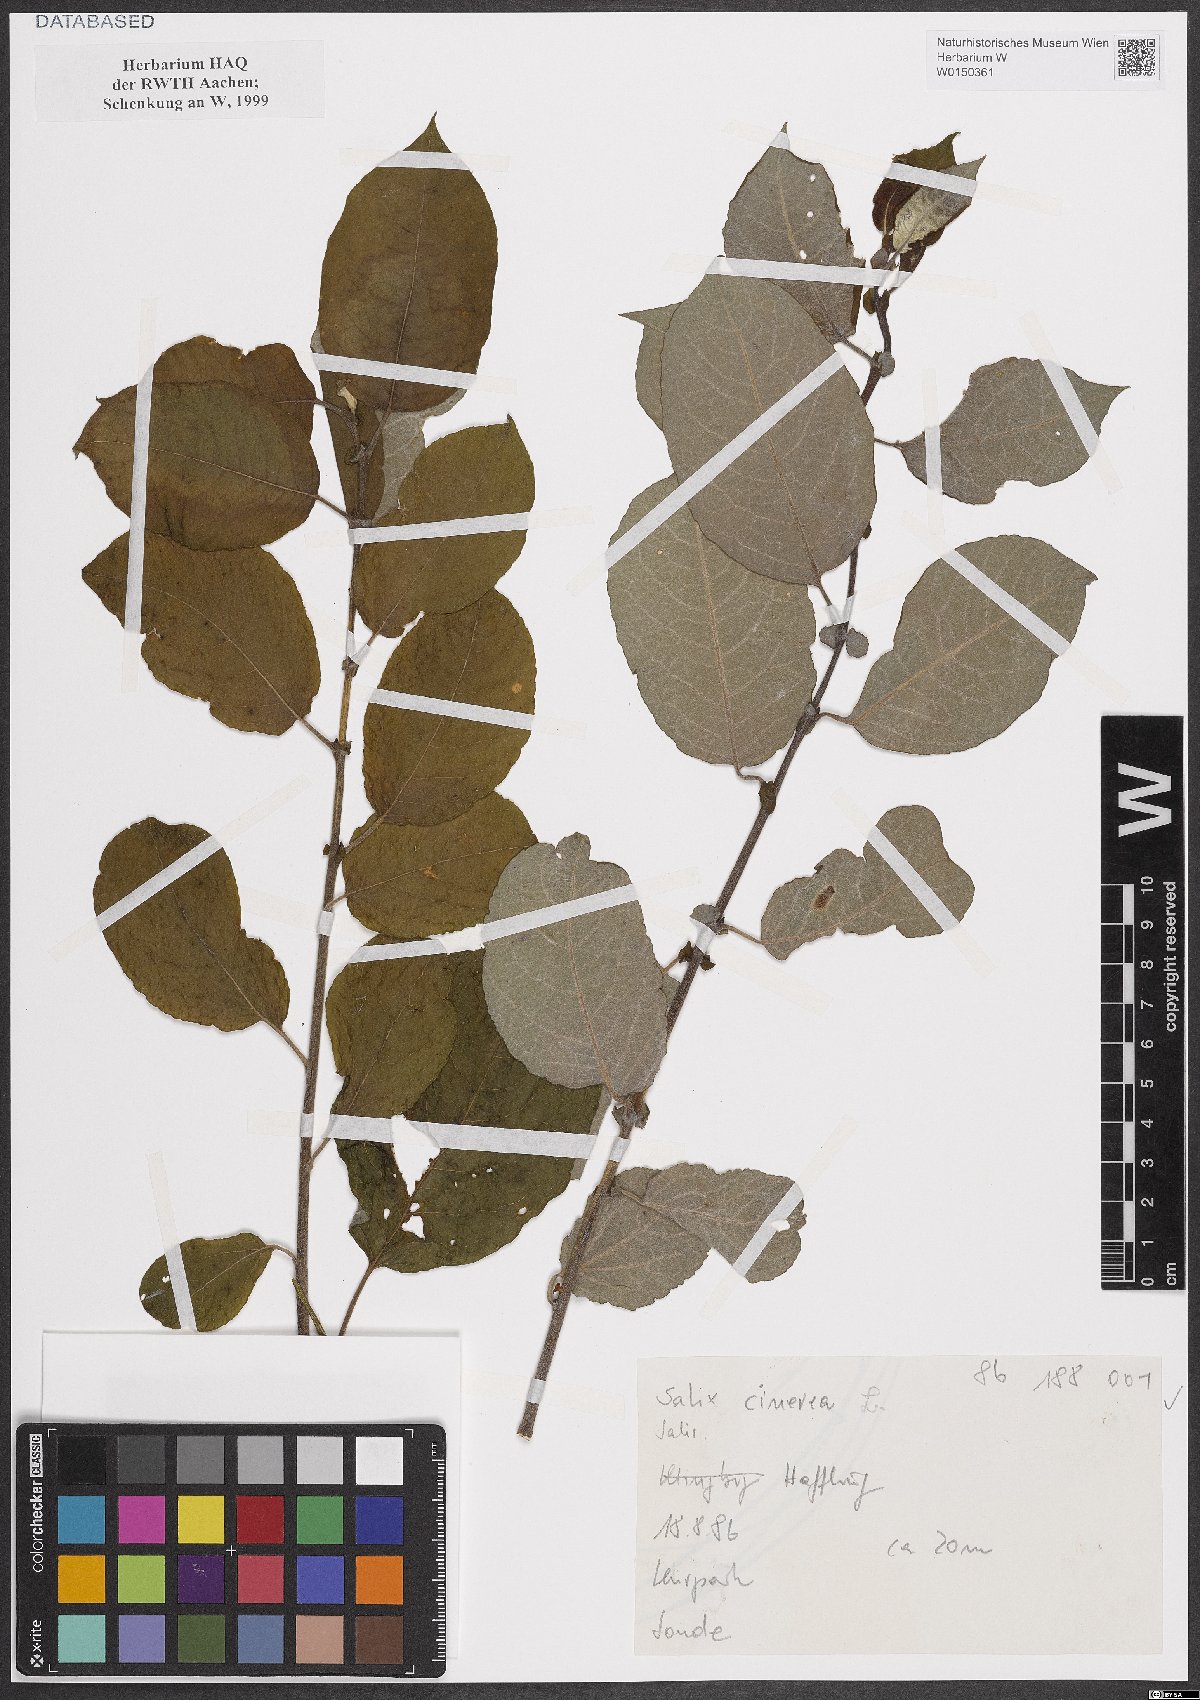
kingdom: Plantae
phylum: Tracheophyta
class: Magnoliopsida
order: Malpighiales
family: Salicaceae
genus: Salix
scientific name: Salix cinerea
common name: Common sallow
